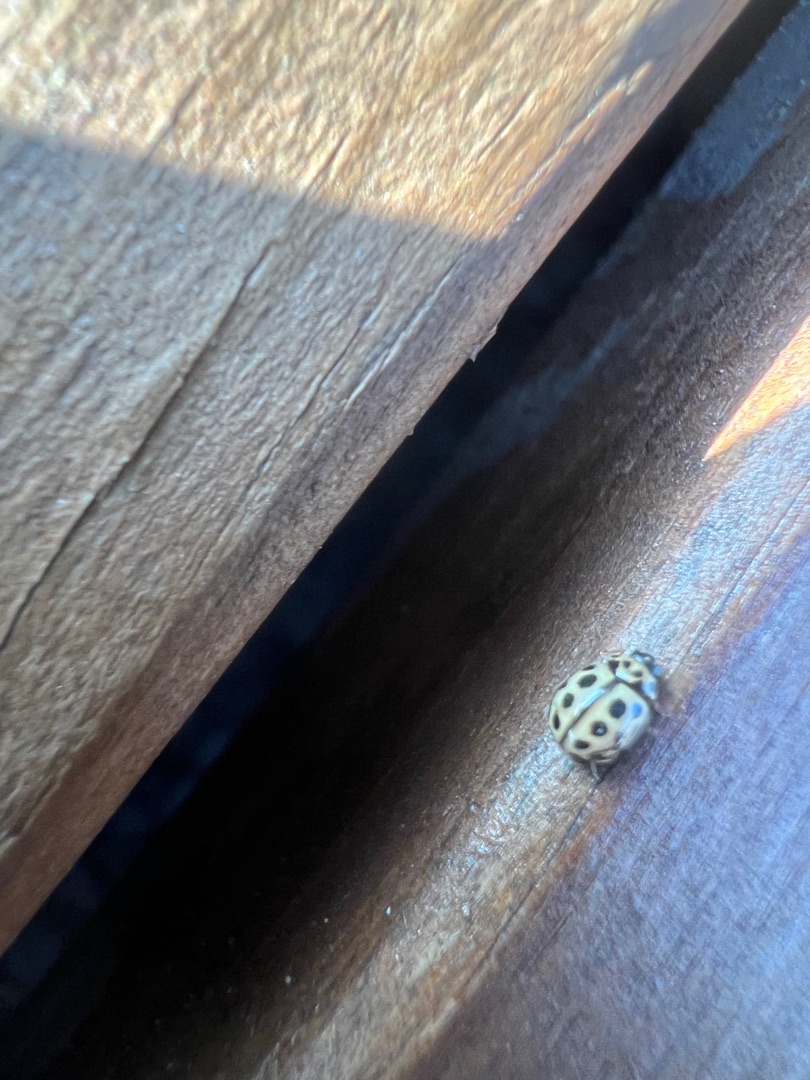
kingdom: Animalia
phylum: Arthropoda
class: Insecta
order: Coleoptera
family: Coccinellidae
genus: Tytthaspis
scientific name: Tytthaspis sedecimpunctata
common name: Sekstenprikket mariehøne
